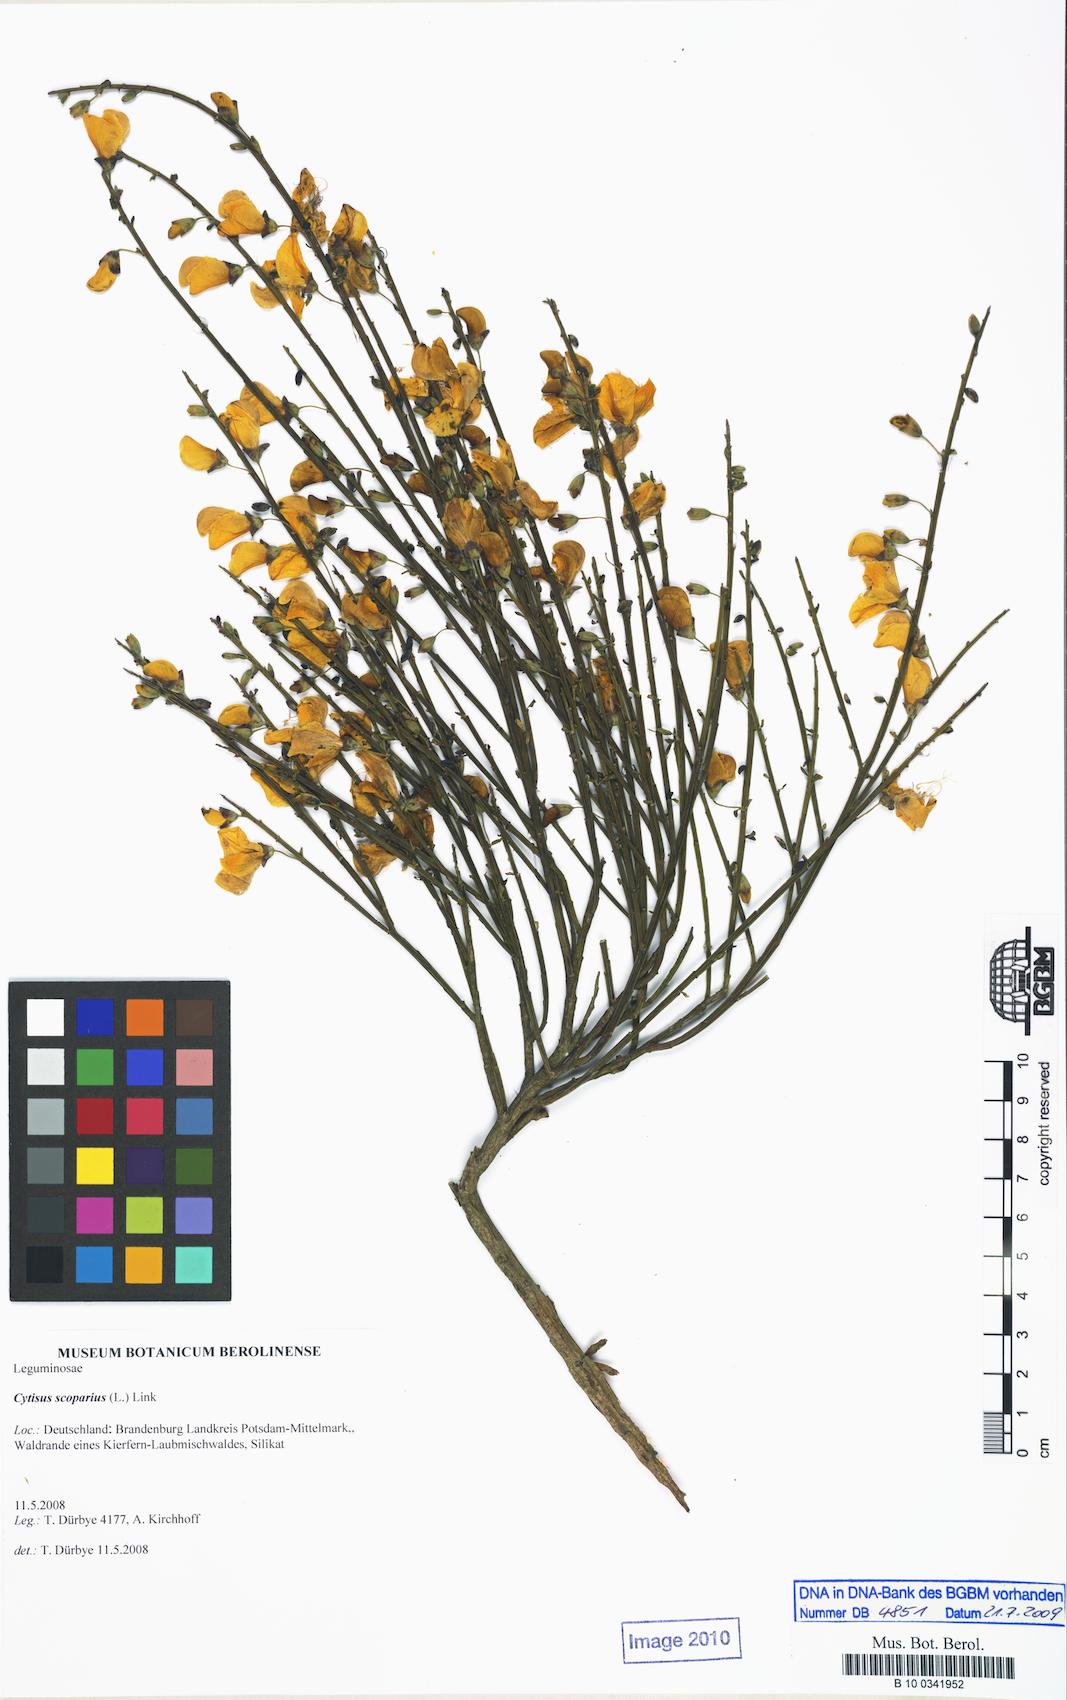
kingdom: Plantae
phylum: Tracheophyta
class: Magnoliopsida
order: Fabales
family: Fabaceae
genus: Cytisus
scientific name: Cytisus scoparius
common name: Scotch broom
